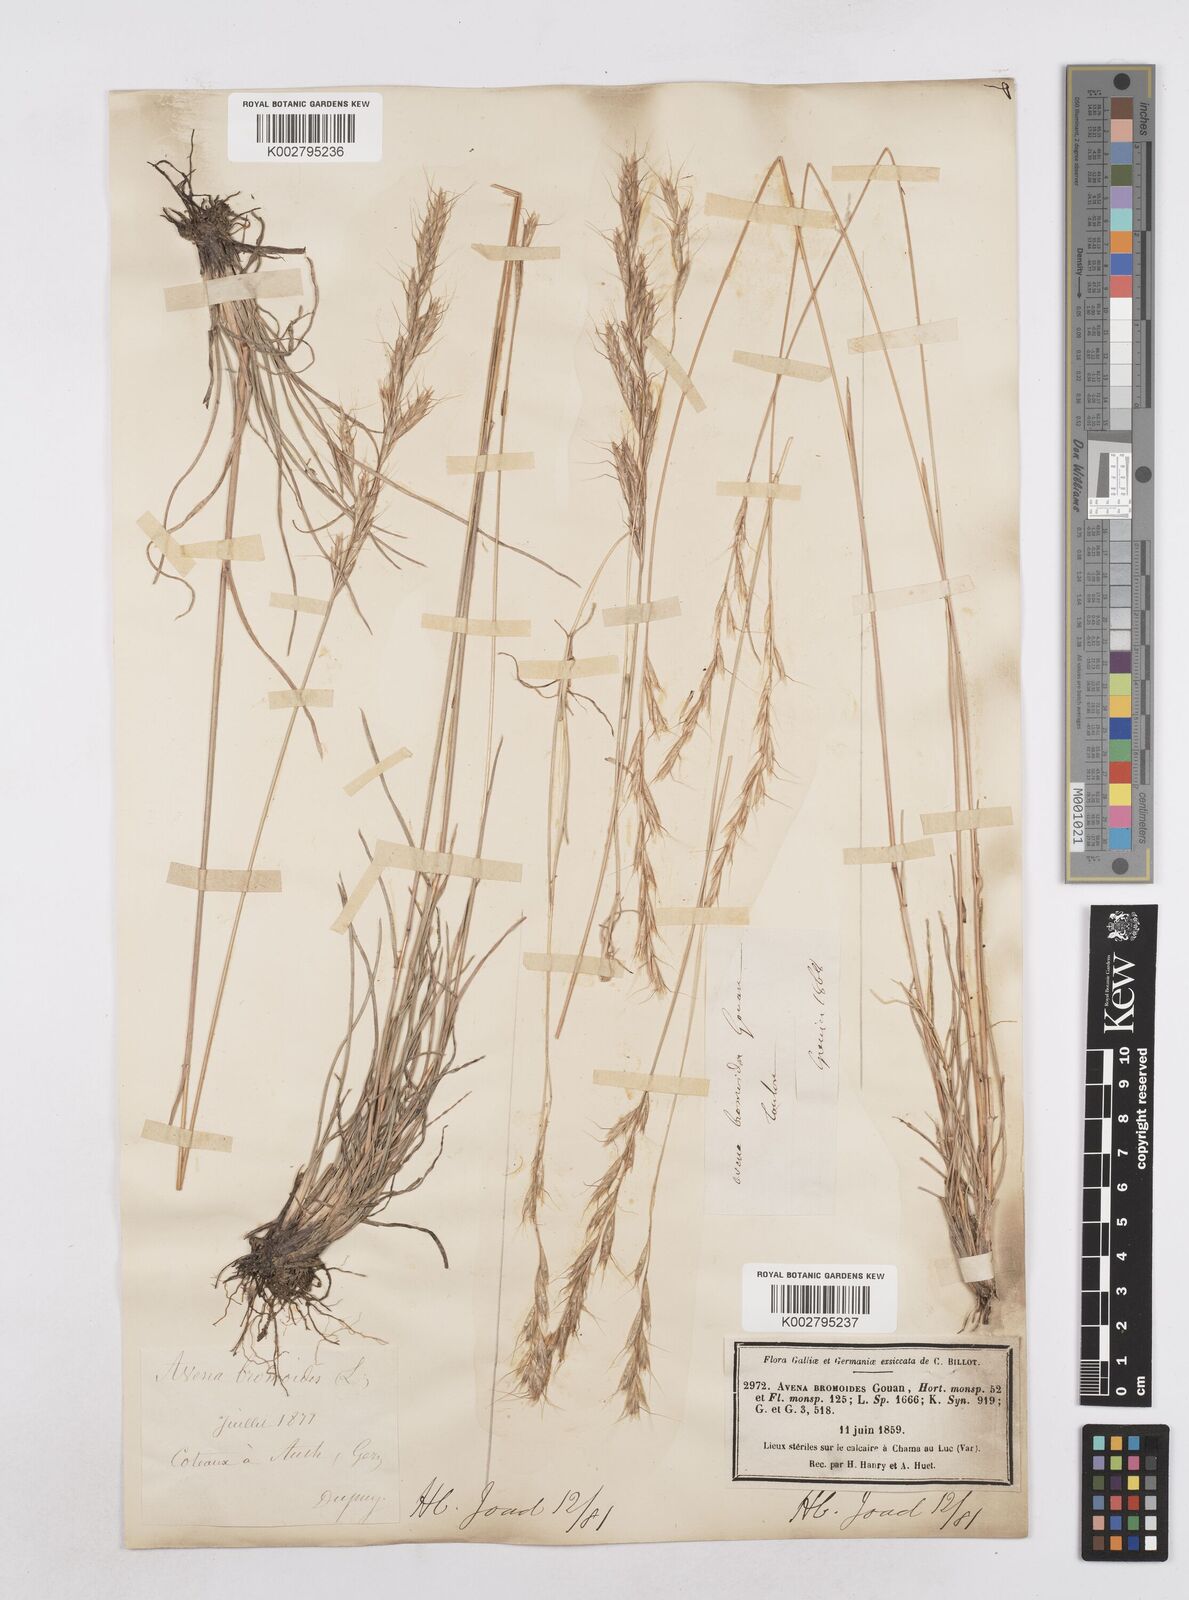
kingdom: Plantae
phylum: Tracheophyta
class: Liliopsida
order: Poales
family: Poaceae
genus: Helictochloa
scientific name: Helictochloa bromoides
